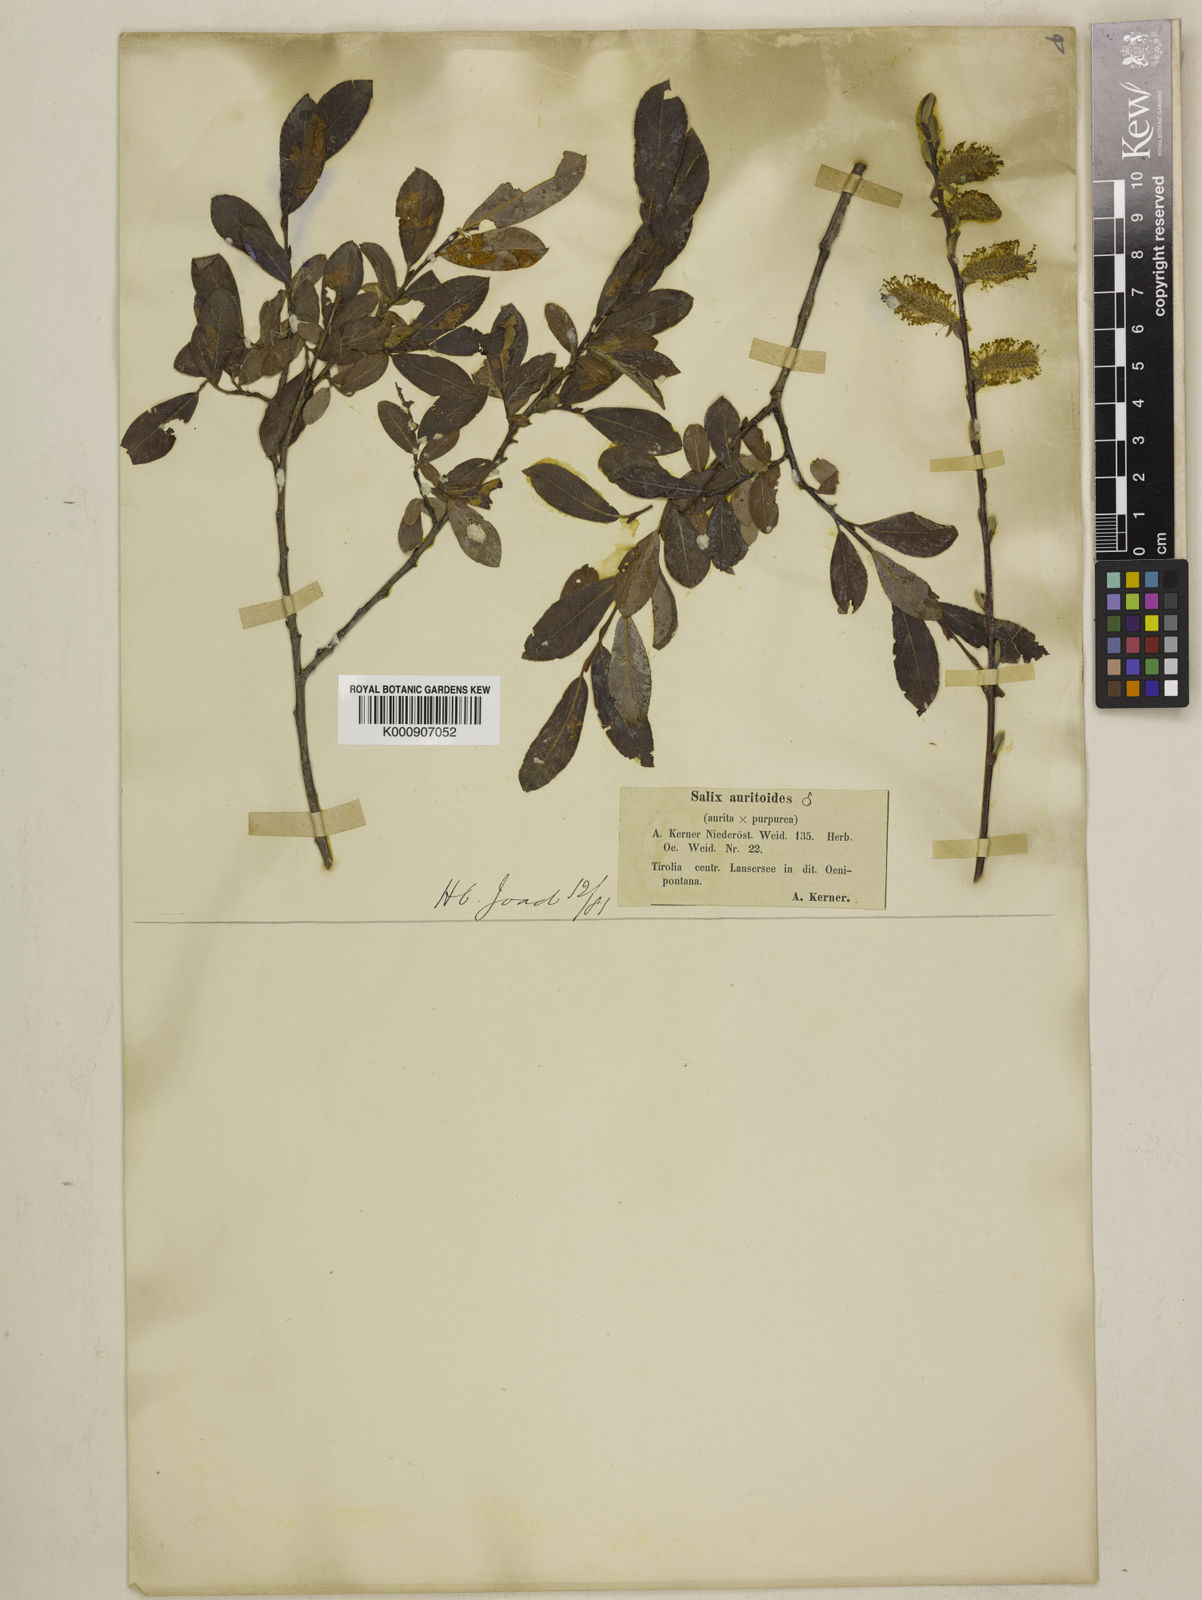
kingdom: Plantae
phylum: Tracheophyta
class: Magnoliopsida
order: Malpighiales
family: Salicaceae
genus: Salix
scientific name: Salix caprea
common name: Goat willow
